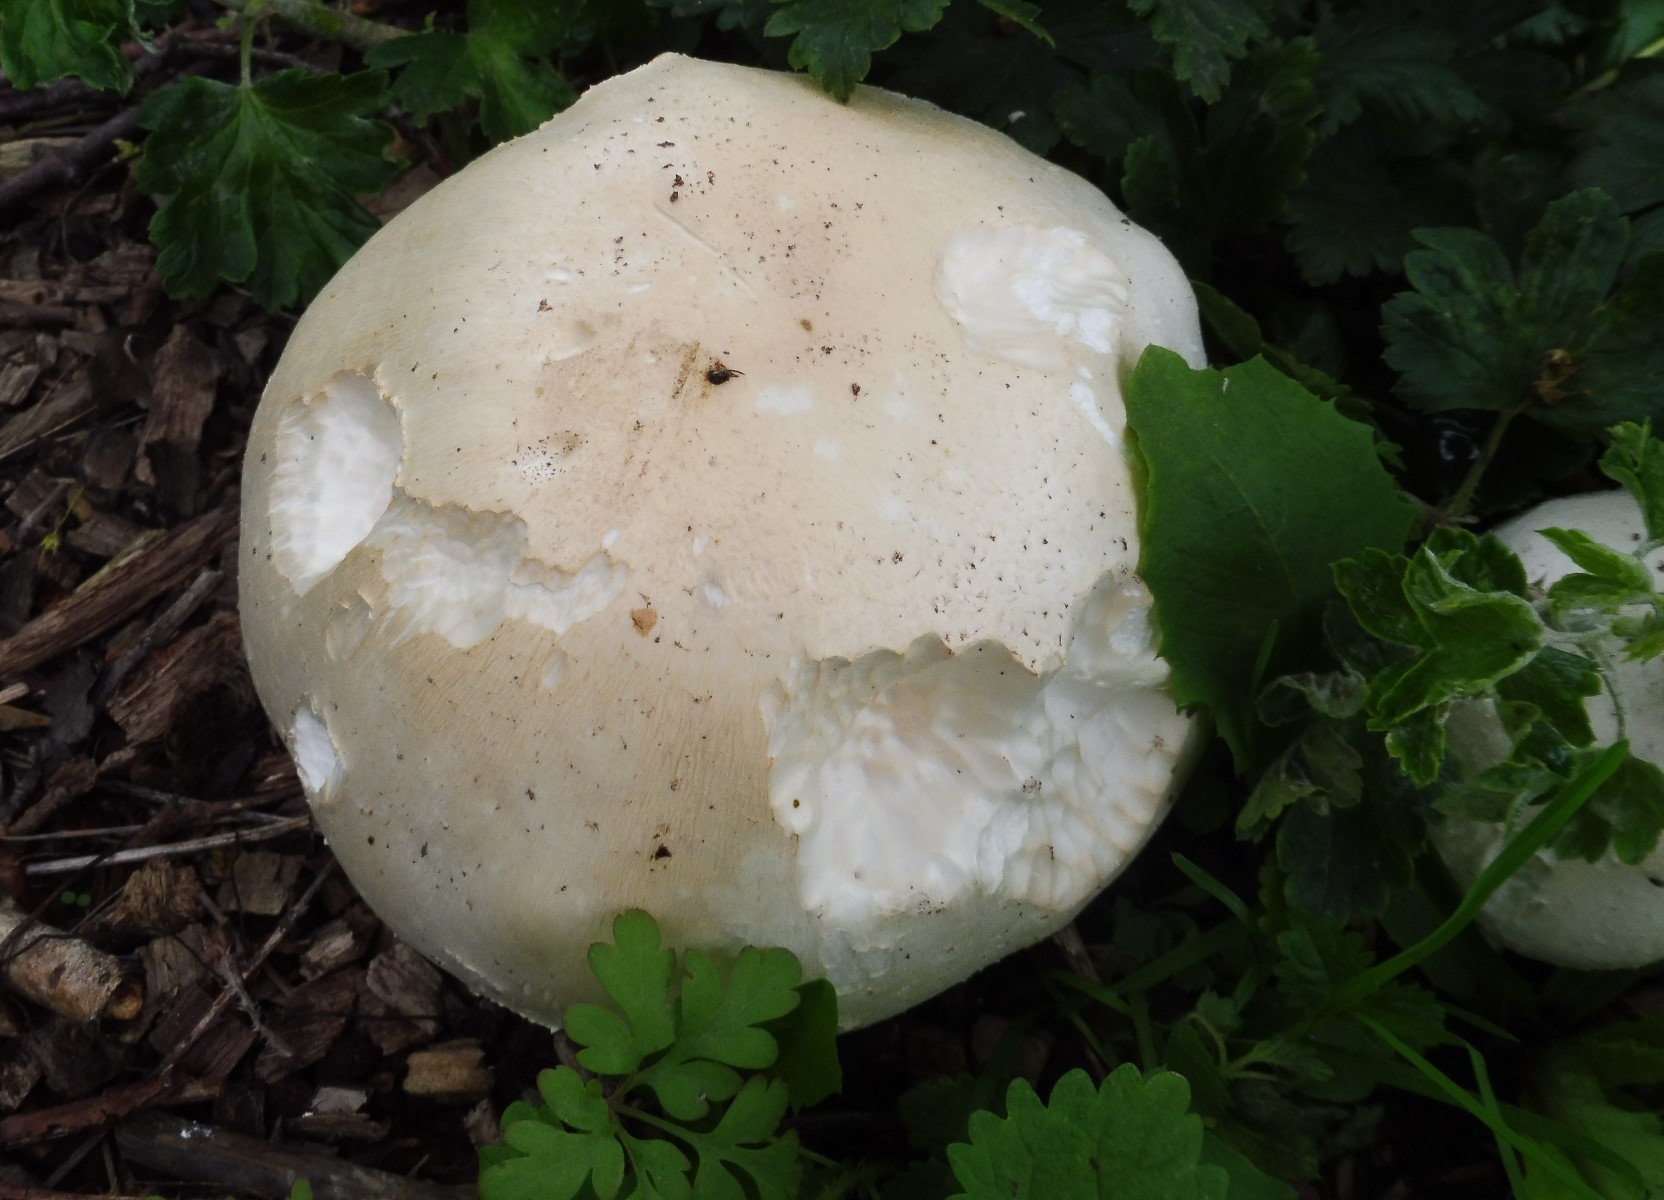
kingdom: Fungi
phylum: Basidiomycota
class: Agaricomycetes
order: Agaricales
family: Agaricaceae
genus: Agaricus
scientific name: Agaricus arvensis
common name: ager-champignon
